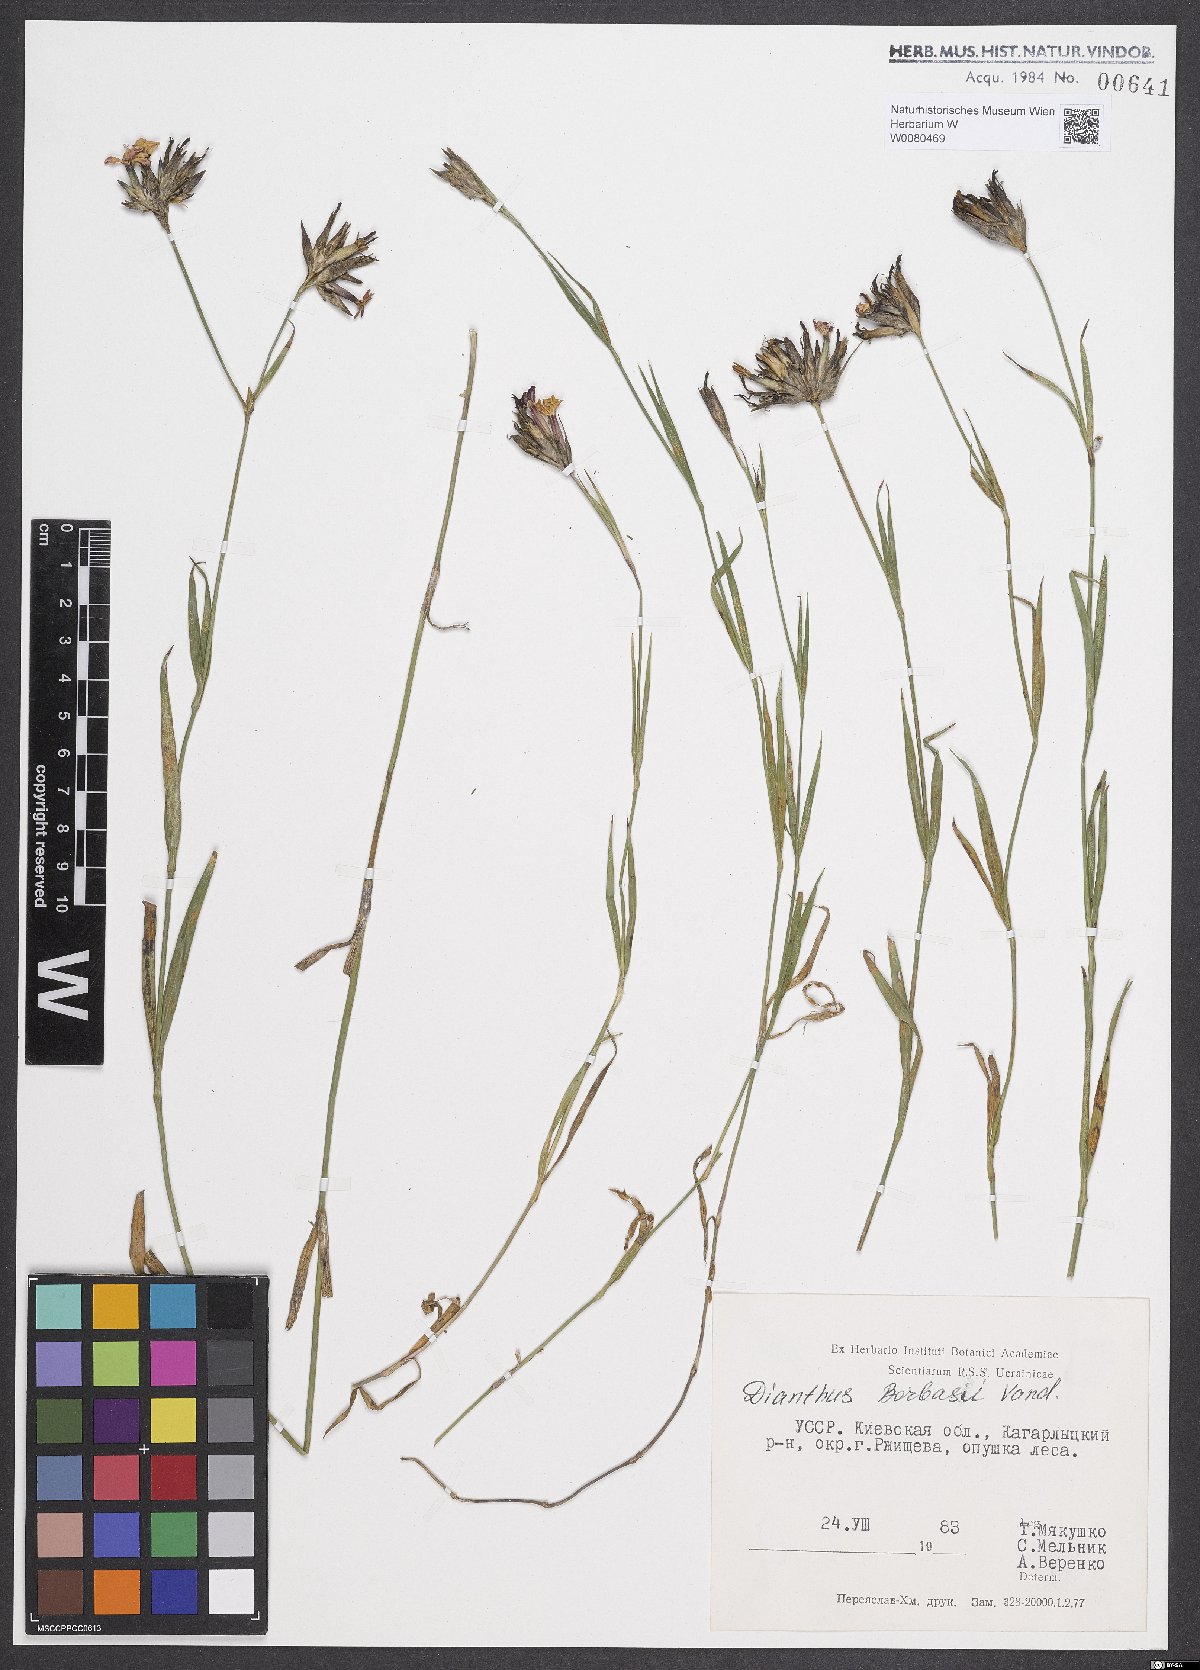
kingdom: Plantae
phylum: Tracheophyta
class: Magnoliopsida
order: Caryophyllales
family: Caryophyllaceae
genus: Dianthus
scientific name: Dianthus borbasii
